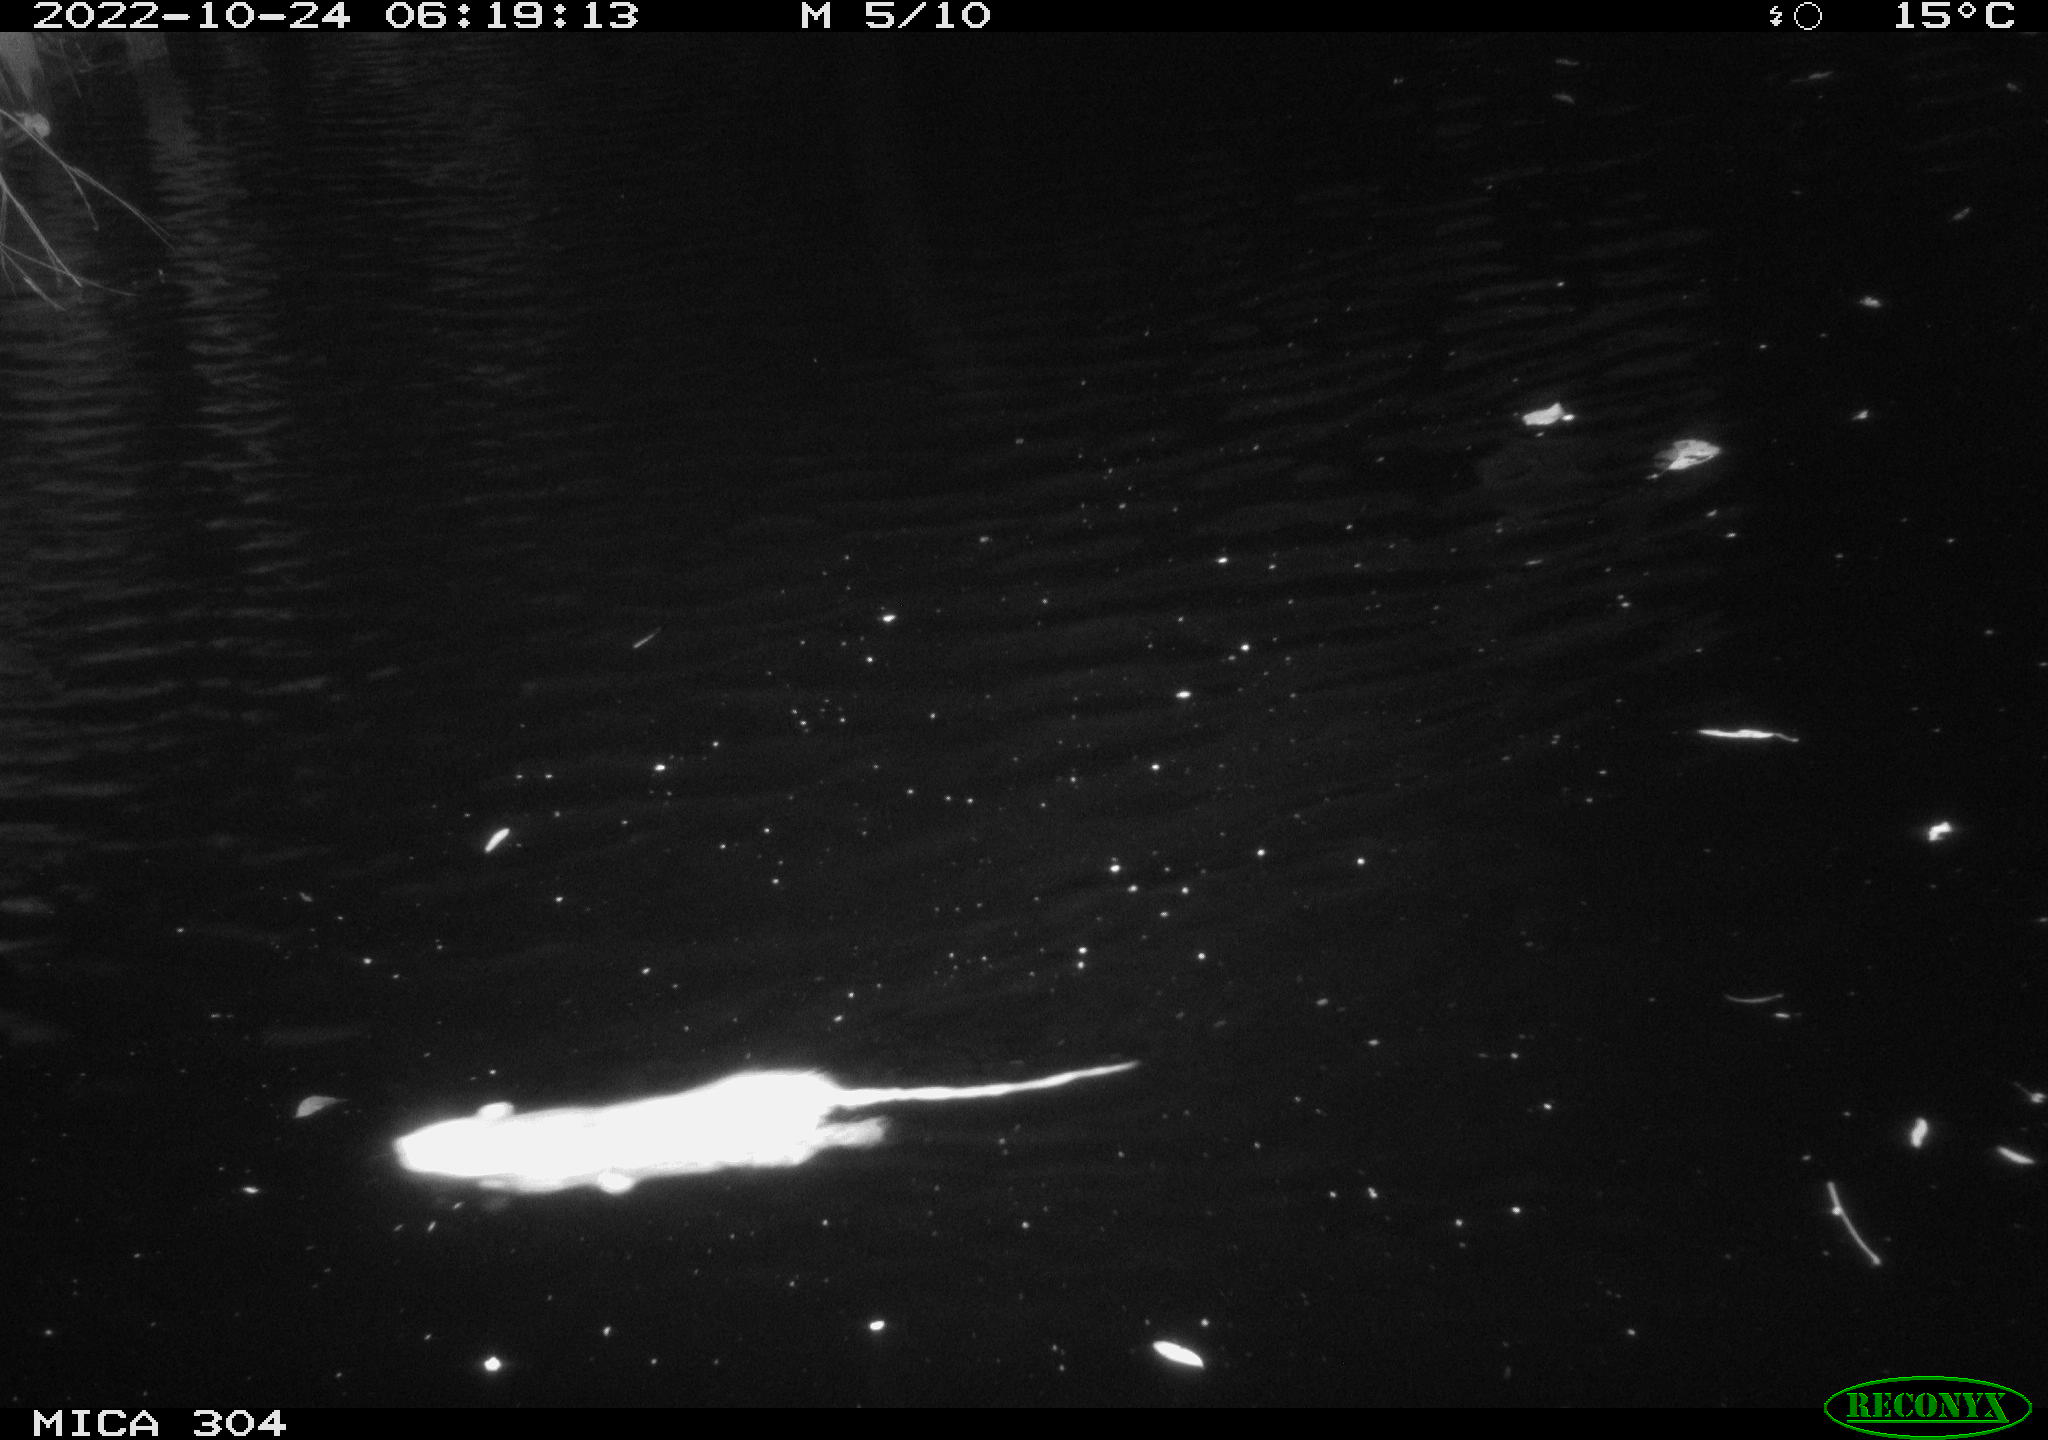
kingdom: Animalia
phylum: Chordata
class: Mammalia
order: Rodentia
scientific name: Rodentia
